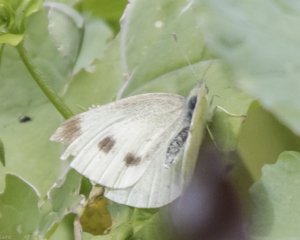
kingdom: Animalia
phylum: Arthropoda
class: Insecta
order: Lepidoptera
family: Pieridae
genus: Pieris
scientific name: Pieris rapae
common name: Cabbage White
